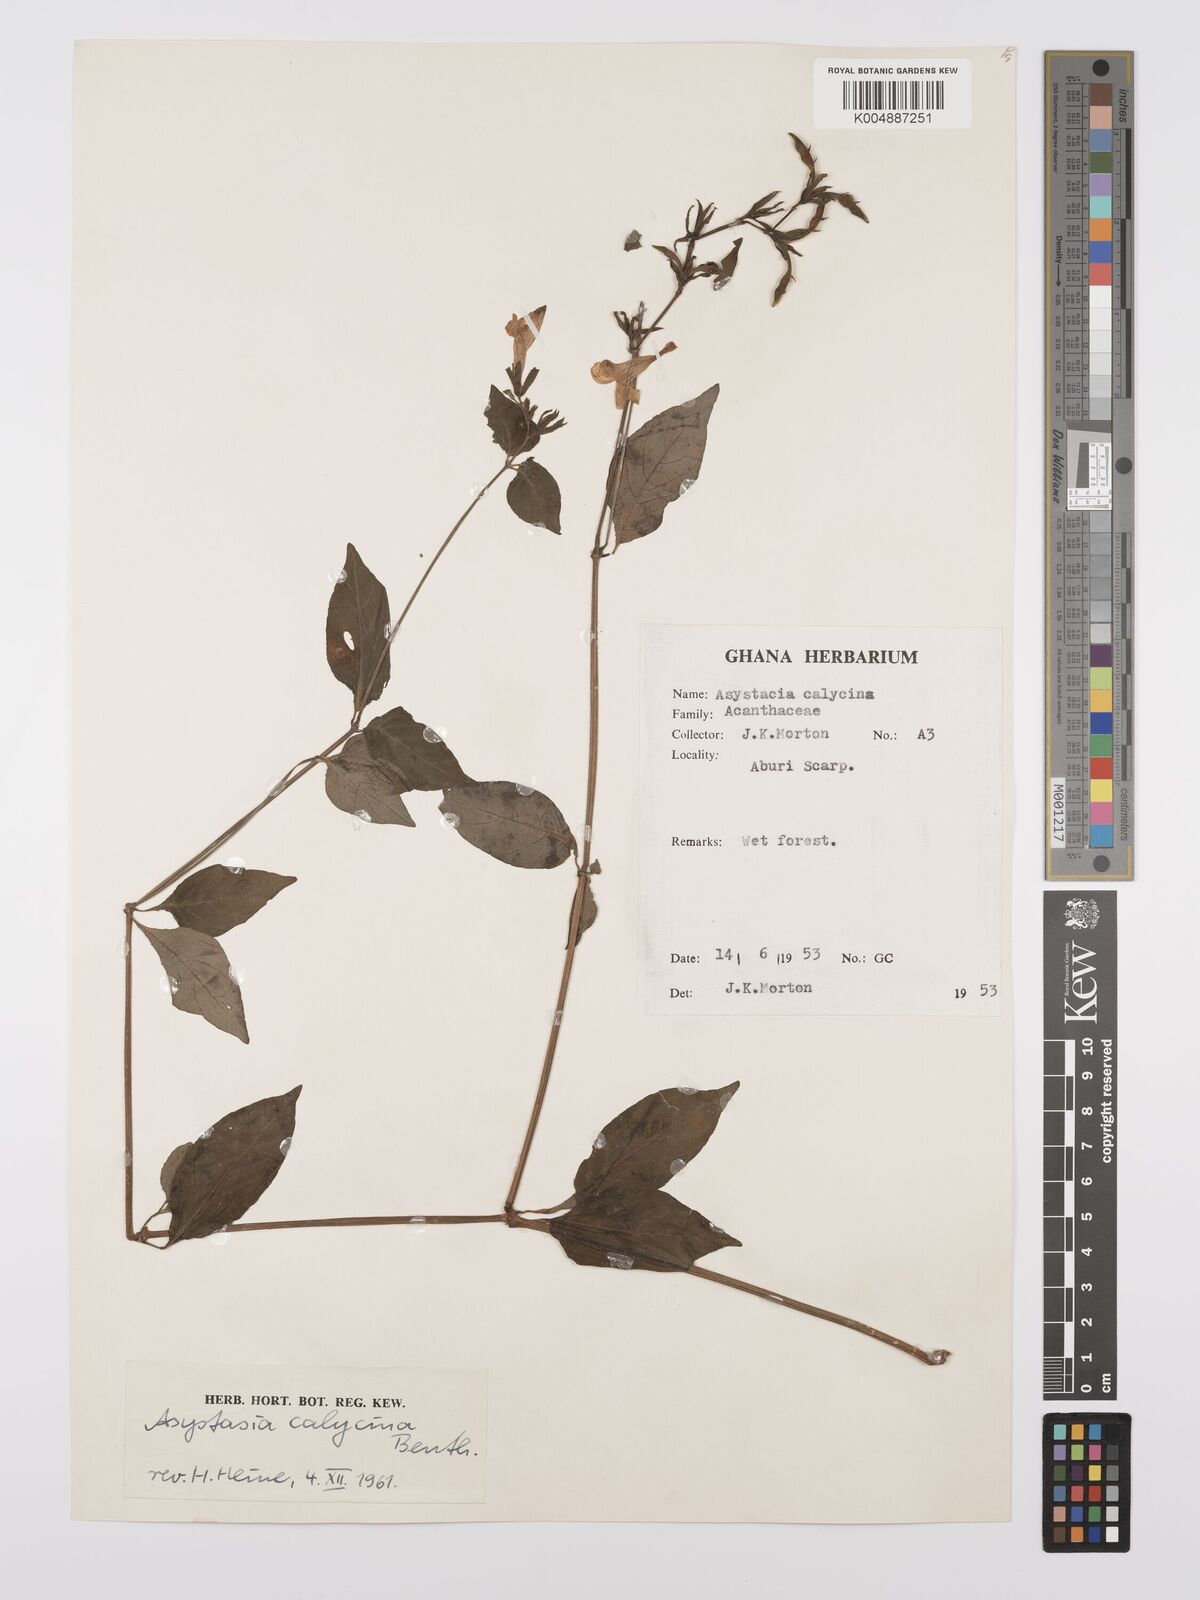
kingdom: Plantae
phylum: Tracheophyta
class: Magnoliopsida
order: Lamiales
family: Acanthaceae
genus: Asystasia
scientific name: Asystasia buettneri
